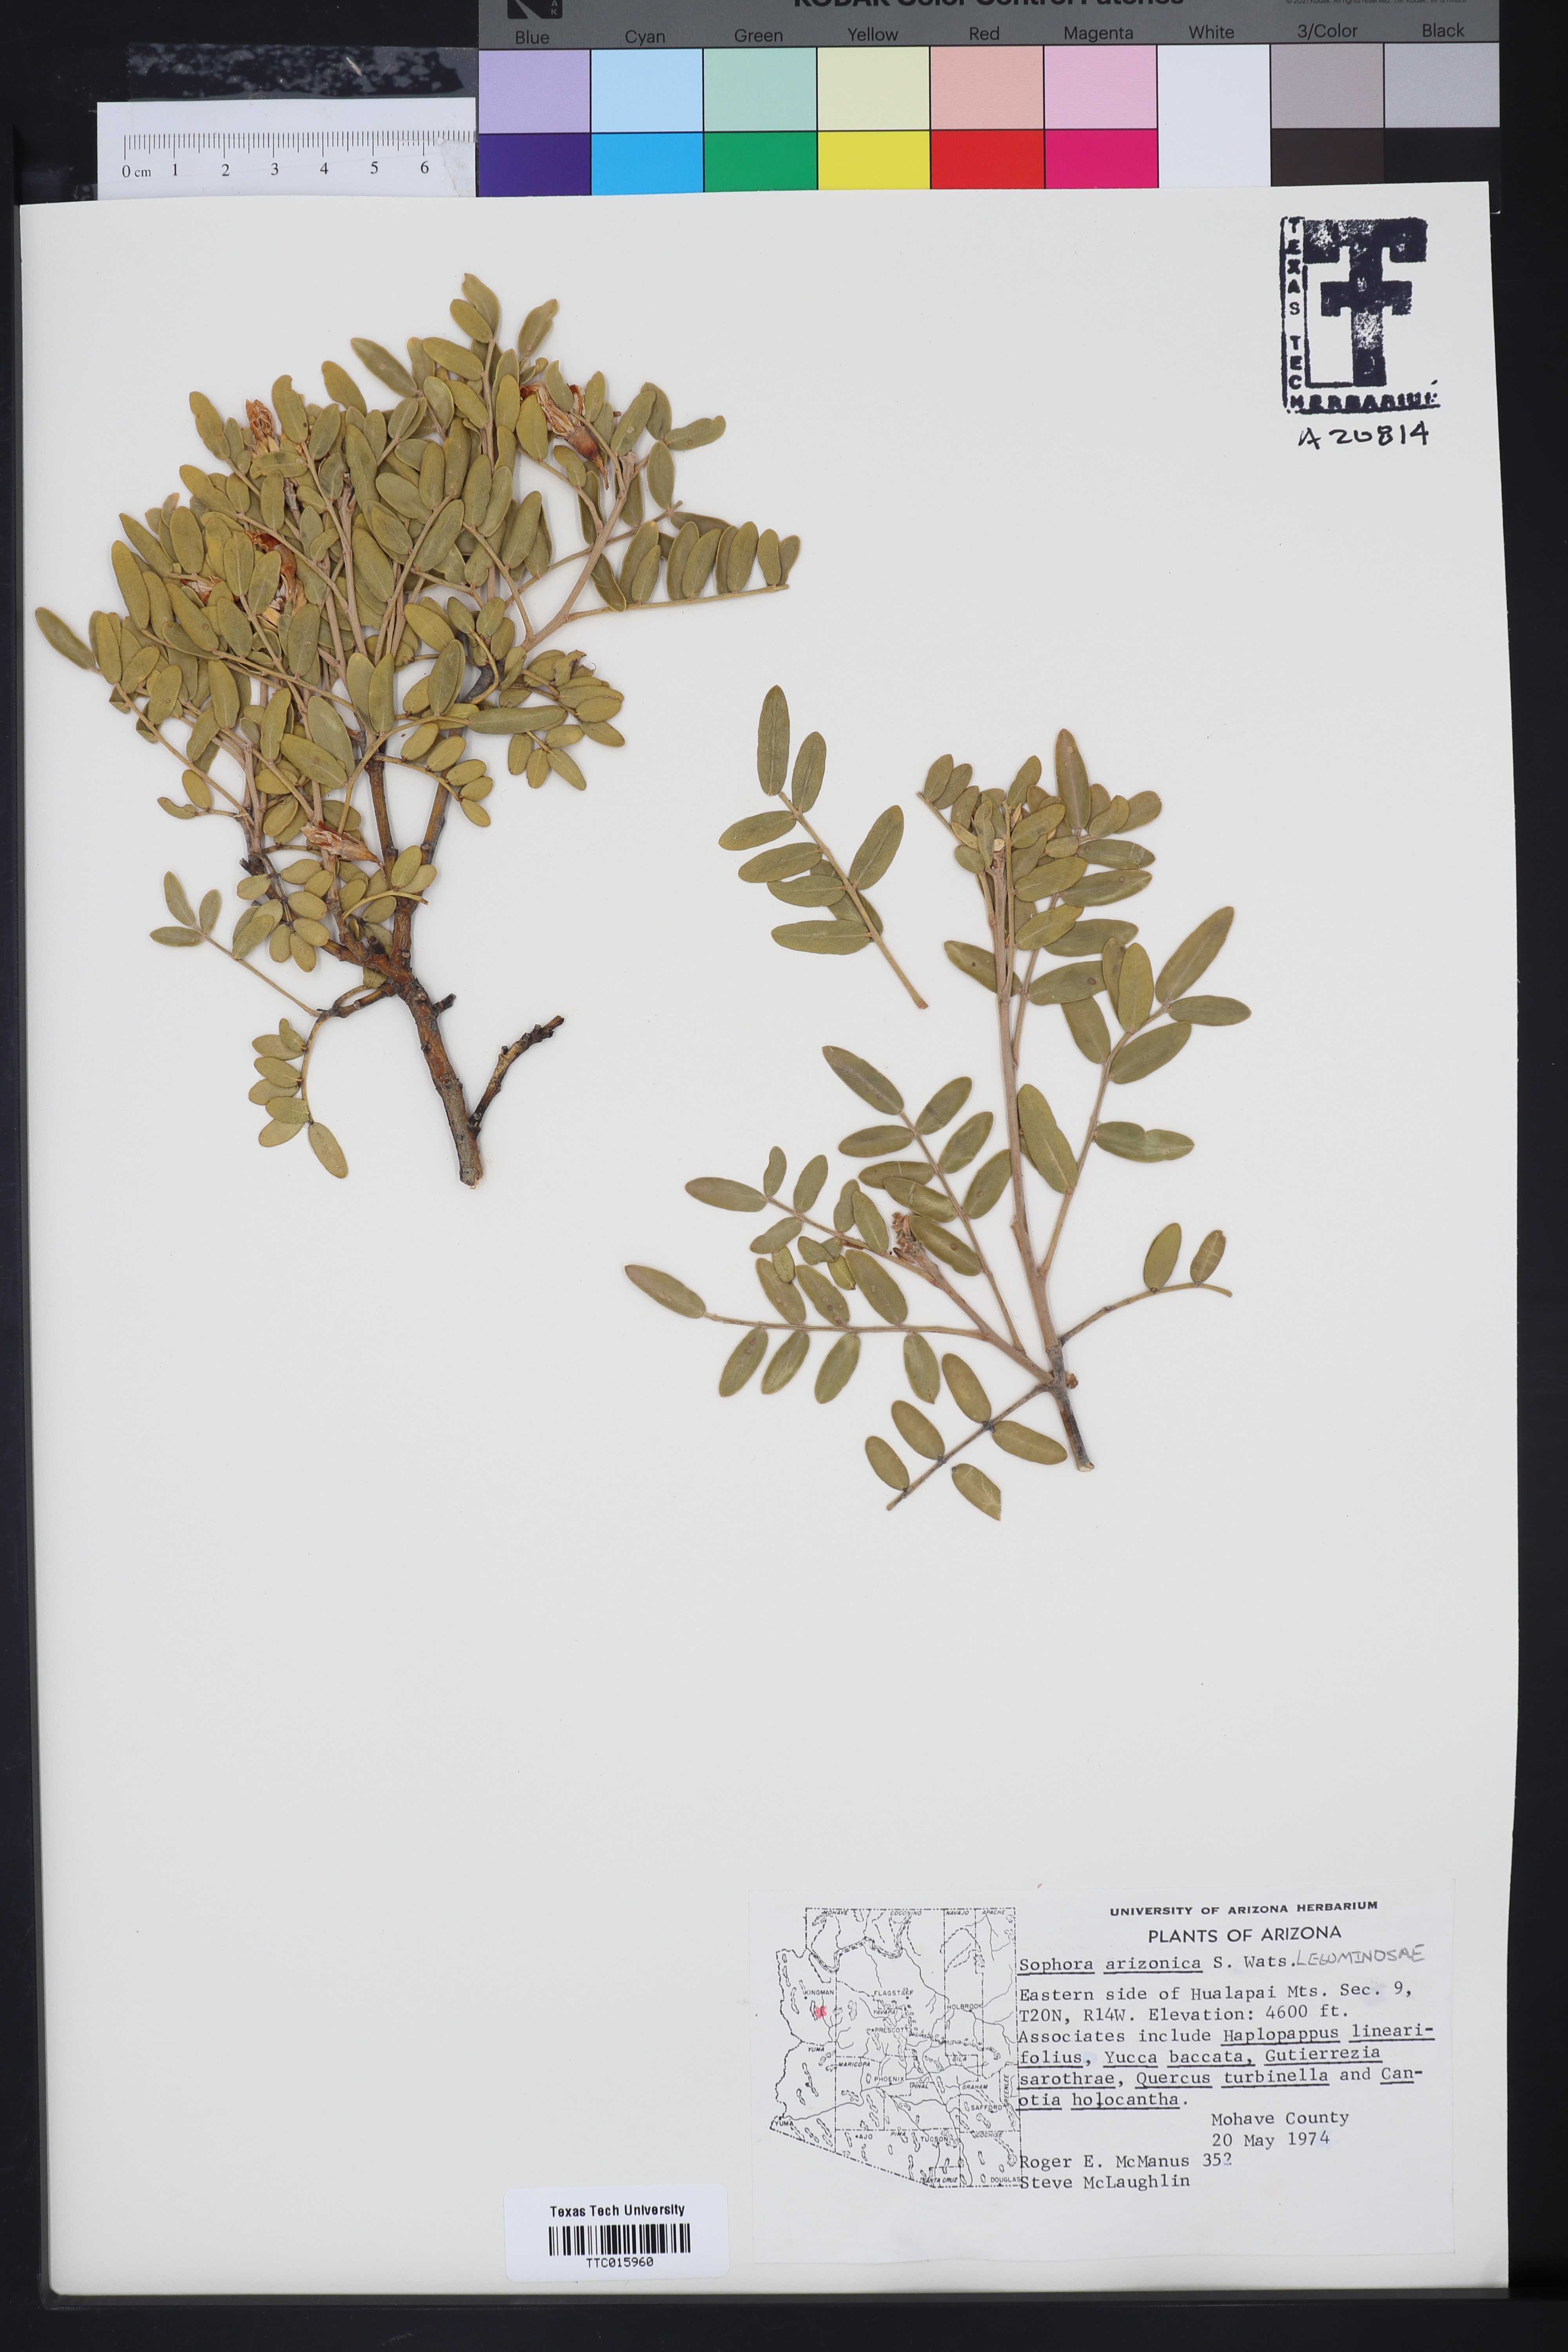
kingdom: Plantae
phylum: Tracheophyta
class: Magnoliopsida
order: Fabales
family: Fabaceae
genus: Dermatophyllum
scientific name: Dermatophyllum arizonicum
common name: Arizona necklace
